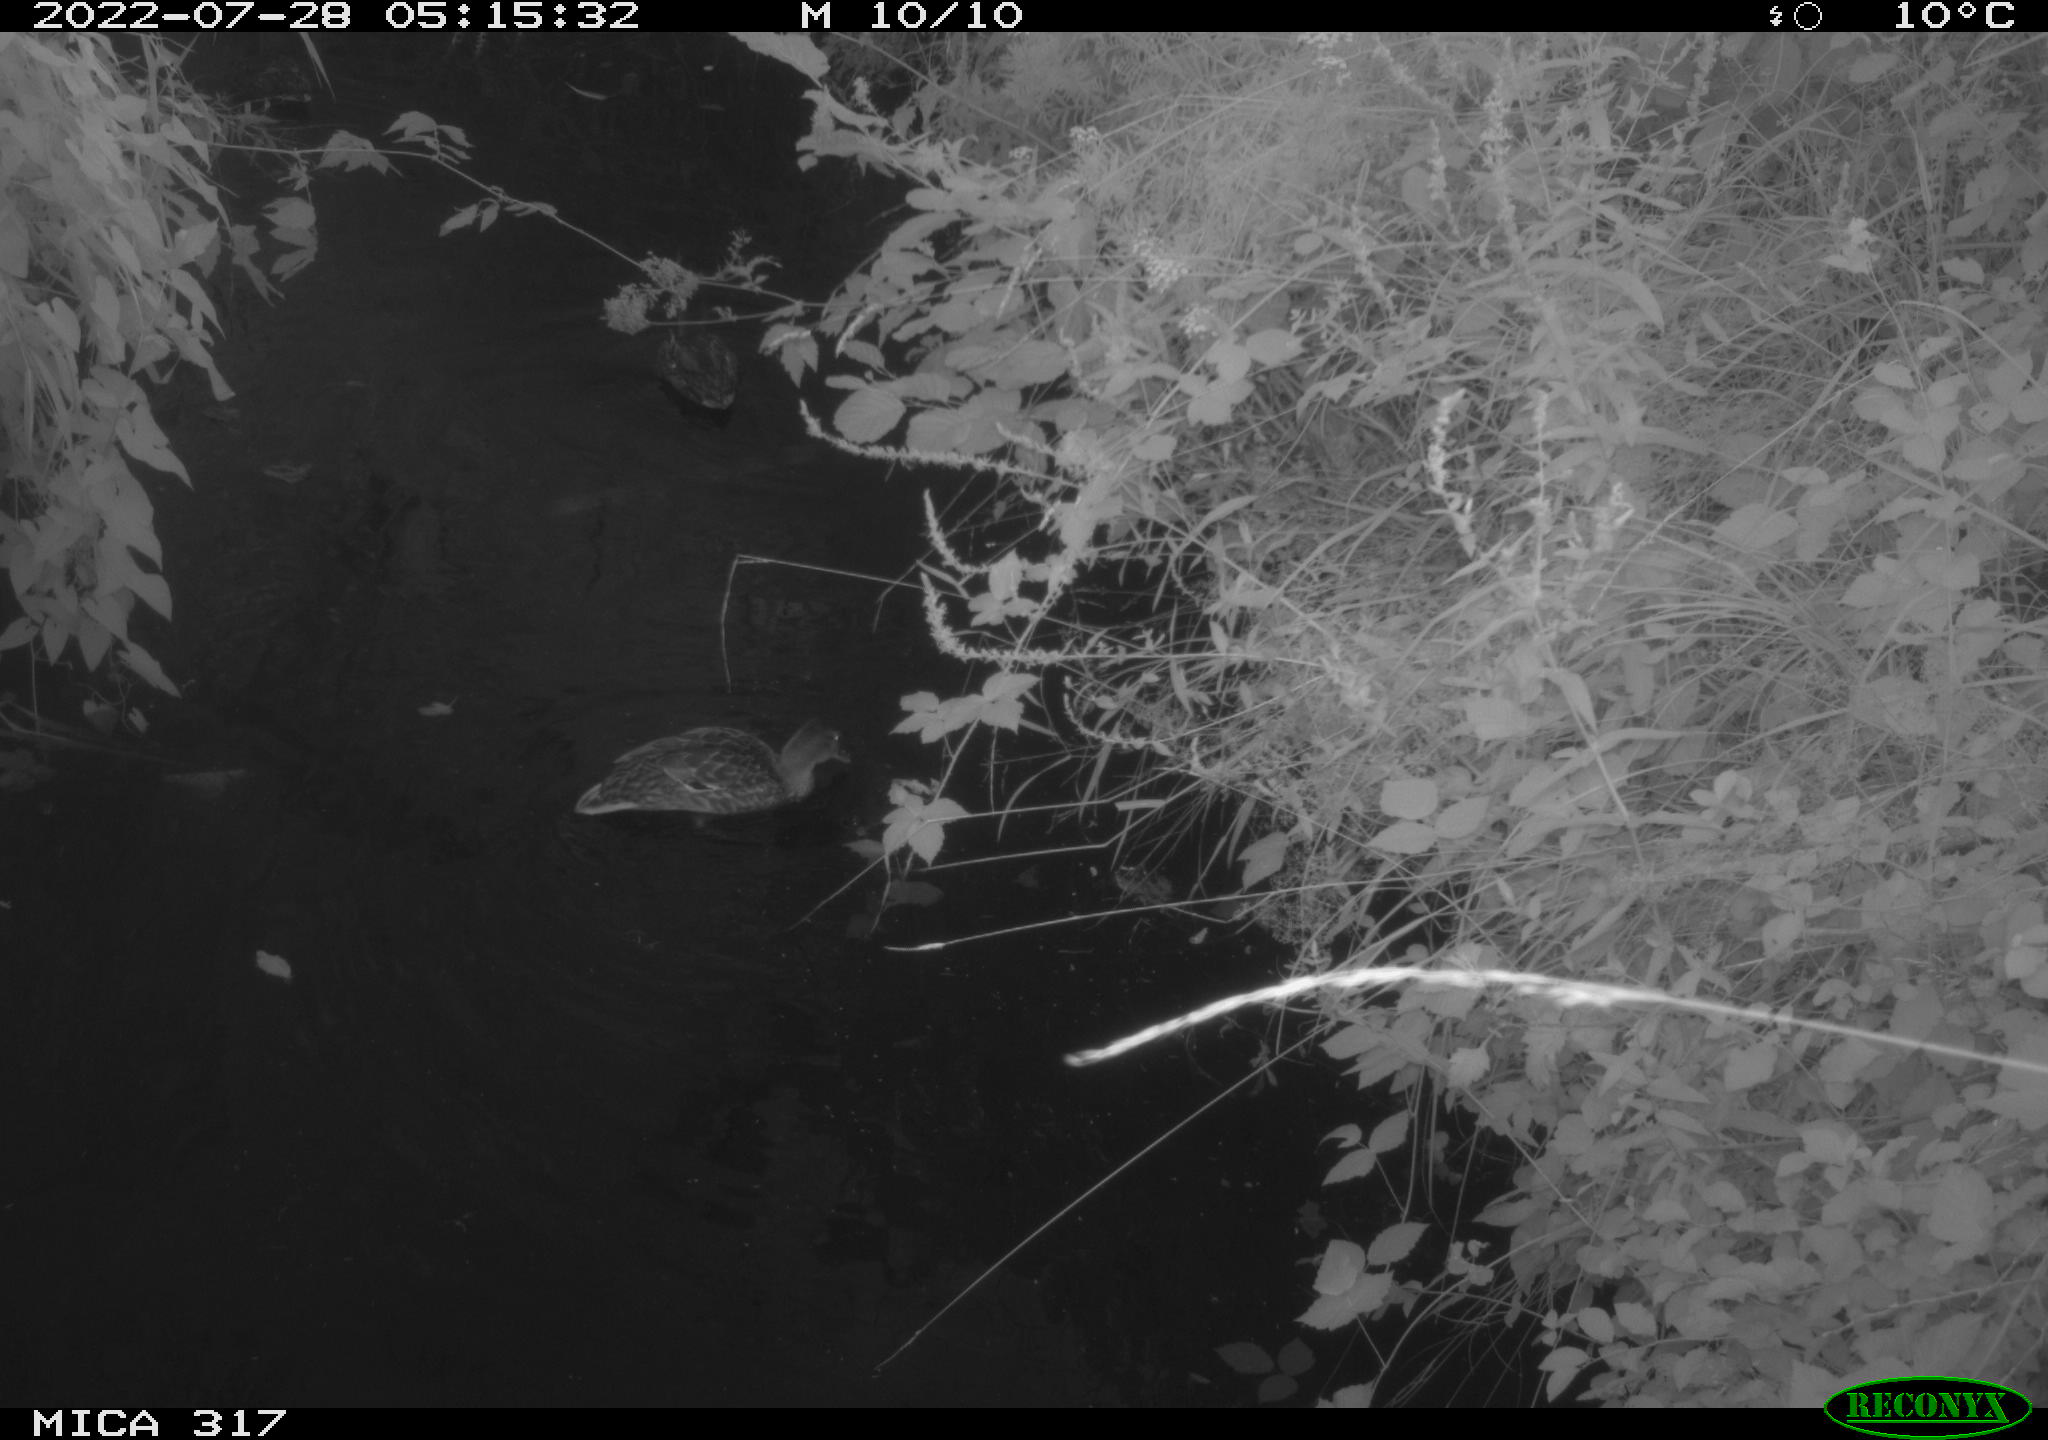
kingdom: Animalia
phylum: Chordata
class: Aves
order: Anseriformes
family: Anatidae
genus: Anas
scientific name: Anas
